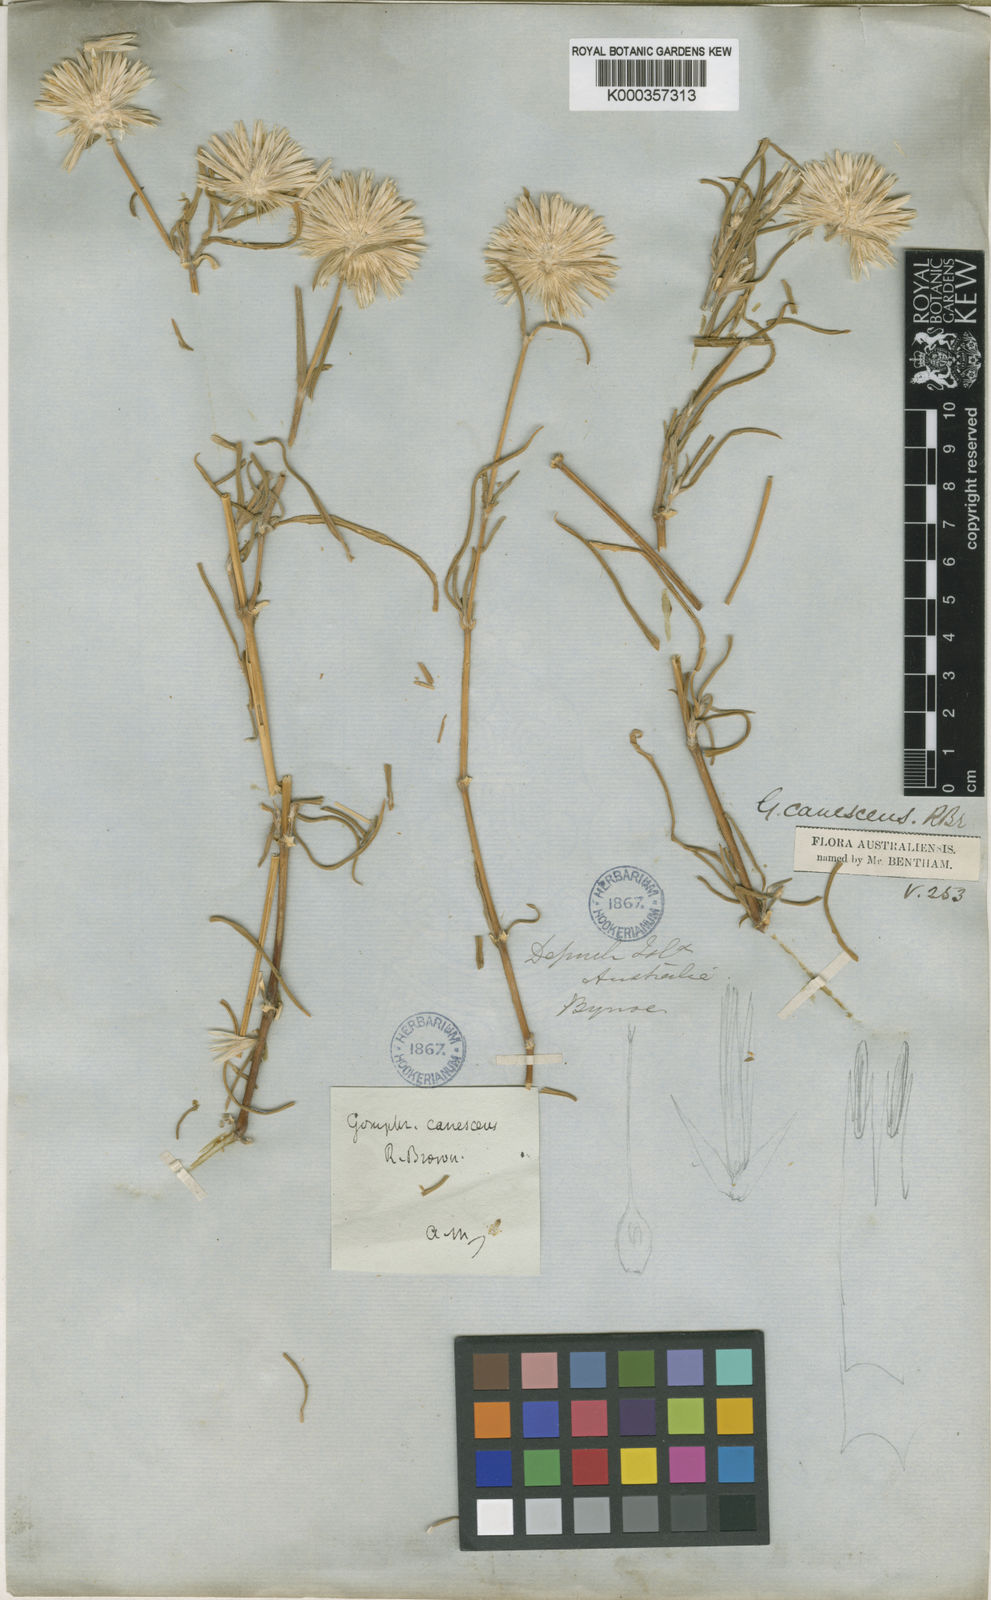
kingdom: Plantae
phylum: Tracheophyta
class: Magnoliopsida
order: Caryophyllales
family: Amaranthaceae
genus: Gomphrena
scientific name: Gomphrena canescens
